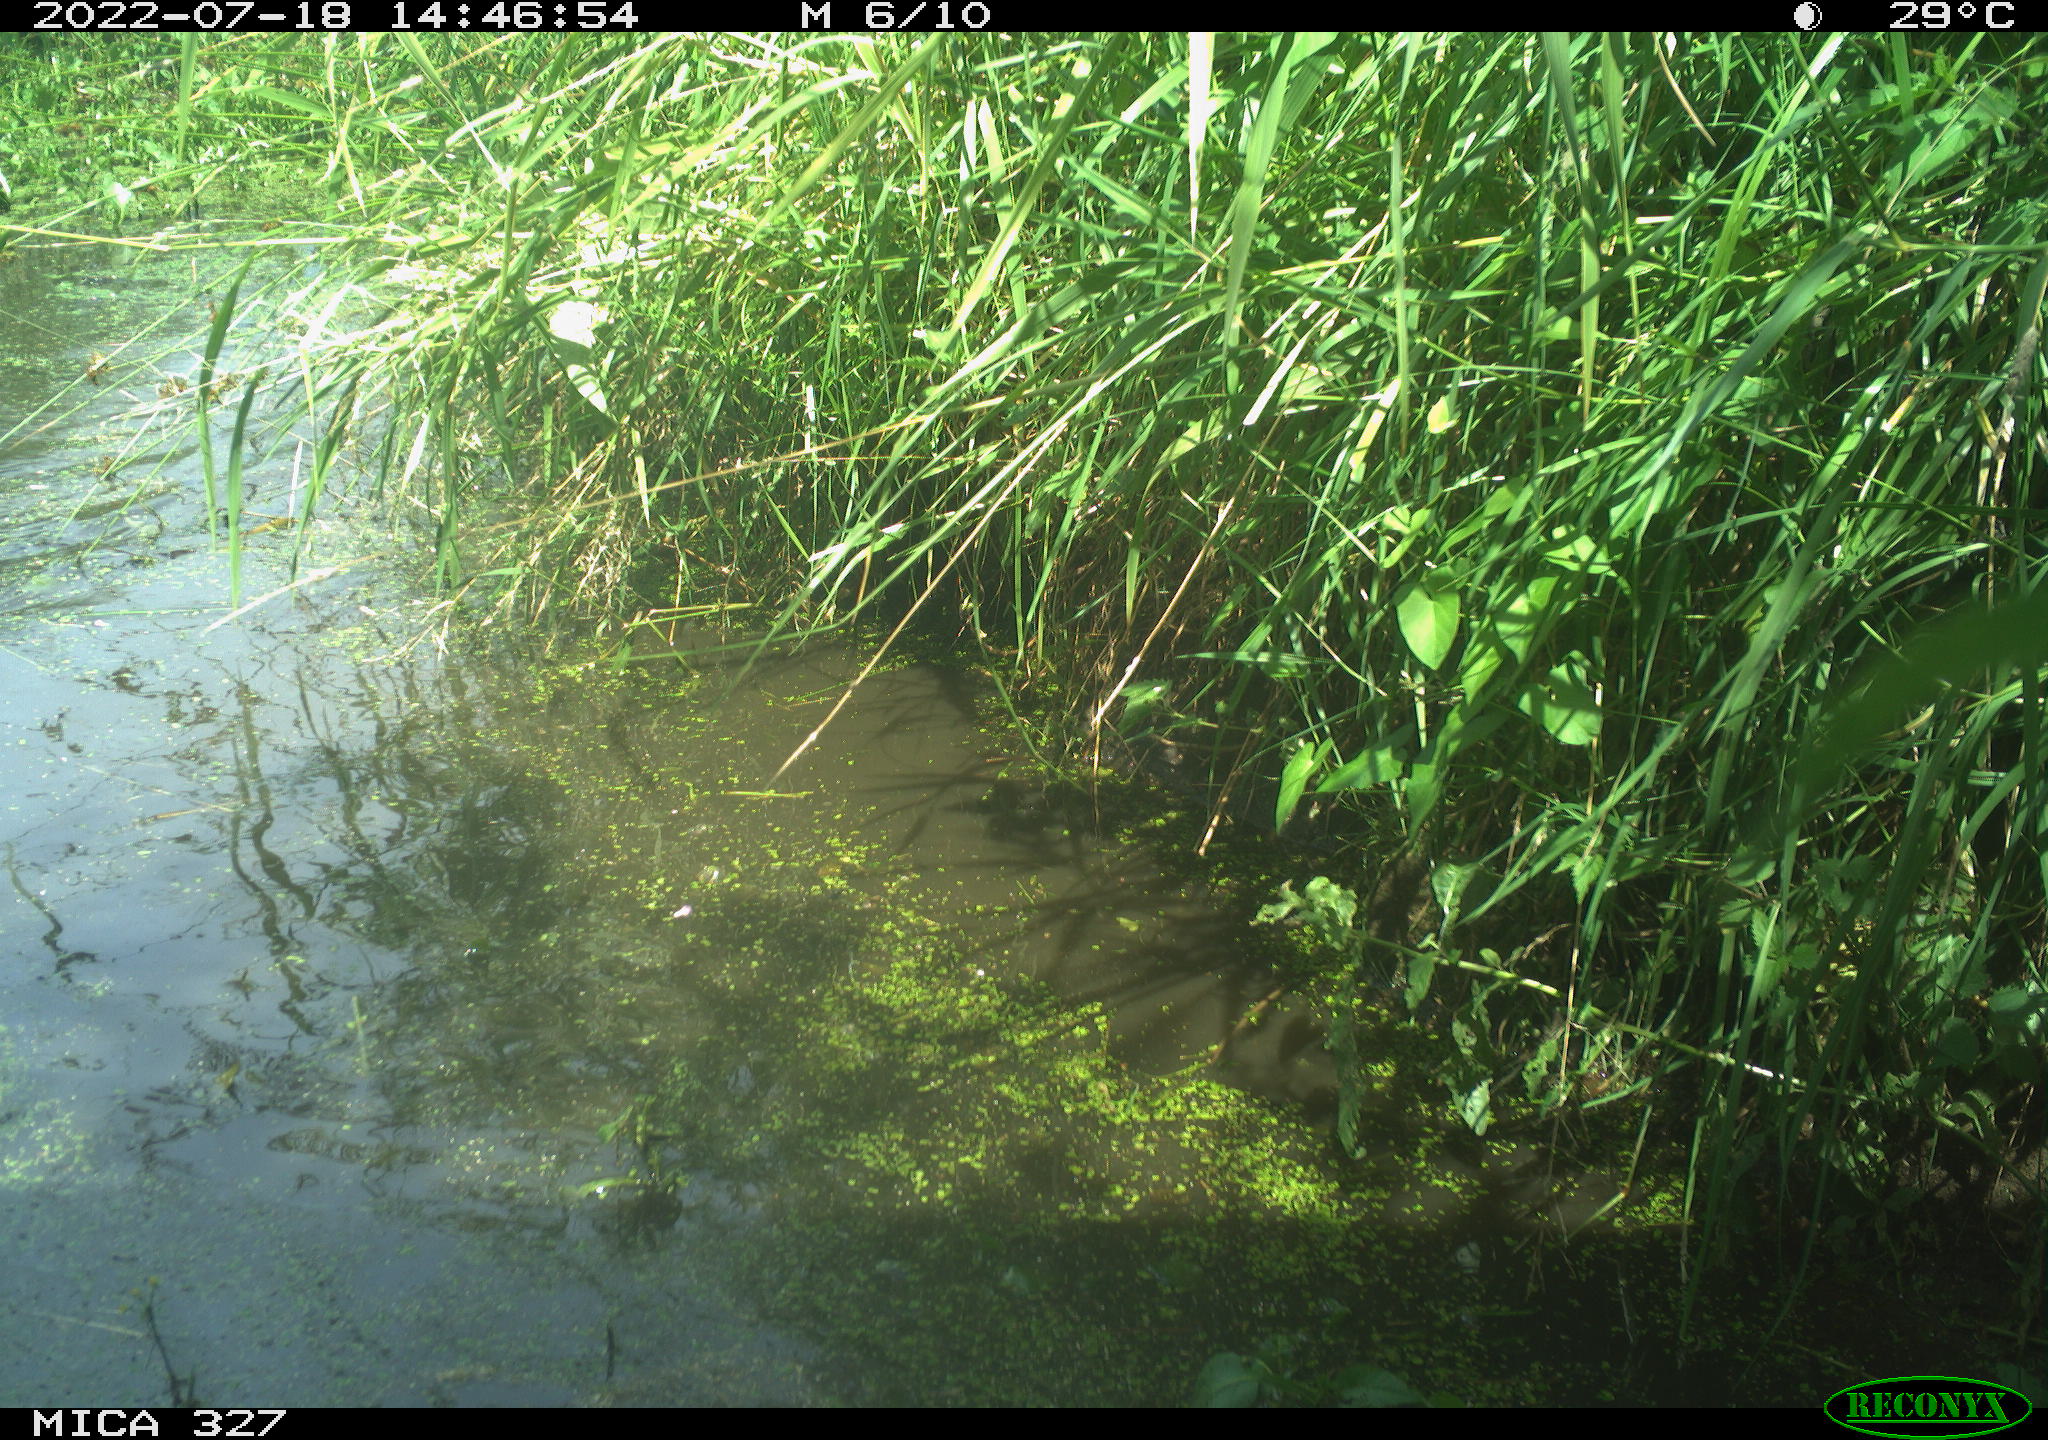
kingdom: Animalia
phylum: Chordata
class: Aves
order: Gruiformes
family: Rallidae
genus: Gallinula
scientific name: Gallinula chloropus
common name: Common moorhen
